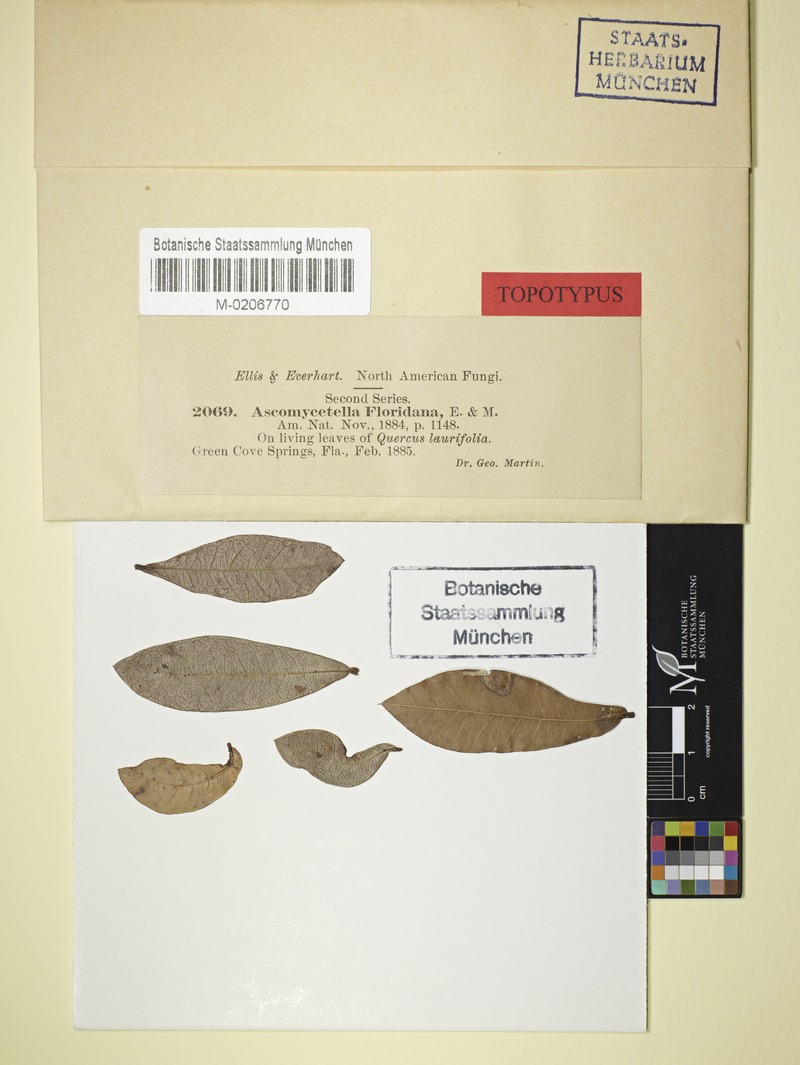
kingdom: Fungi
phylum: Ascomycota
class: Leotiomycetes
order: Helotiales
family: Ascocorticiaceae
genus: Ascosorus
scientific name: Ascosorus floridanus
